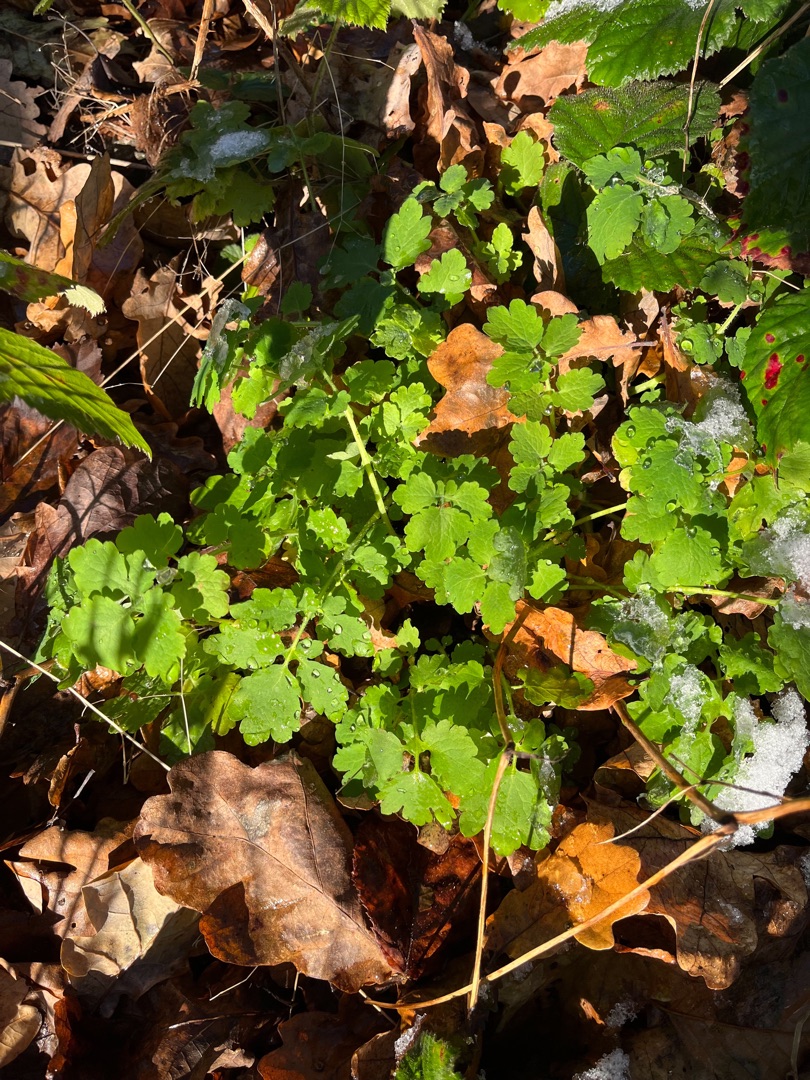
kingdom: Plantae
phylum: Tracheophyta
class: Magnoliopsida
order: Ranunculales
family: Papaveraceae
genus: Chelidonium
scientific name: Chelidonium majus
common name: Svaleurt
